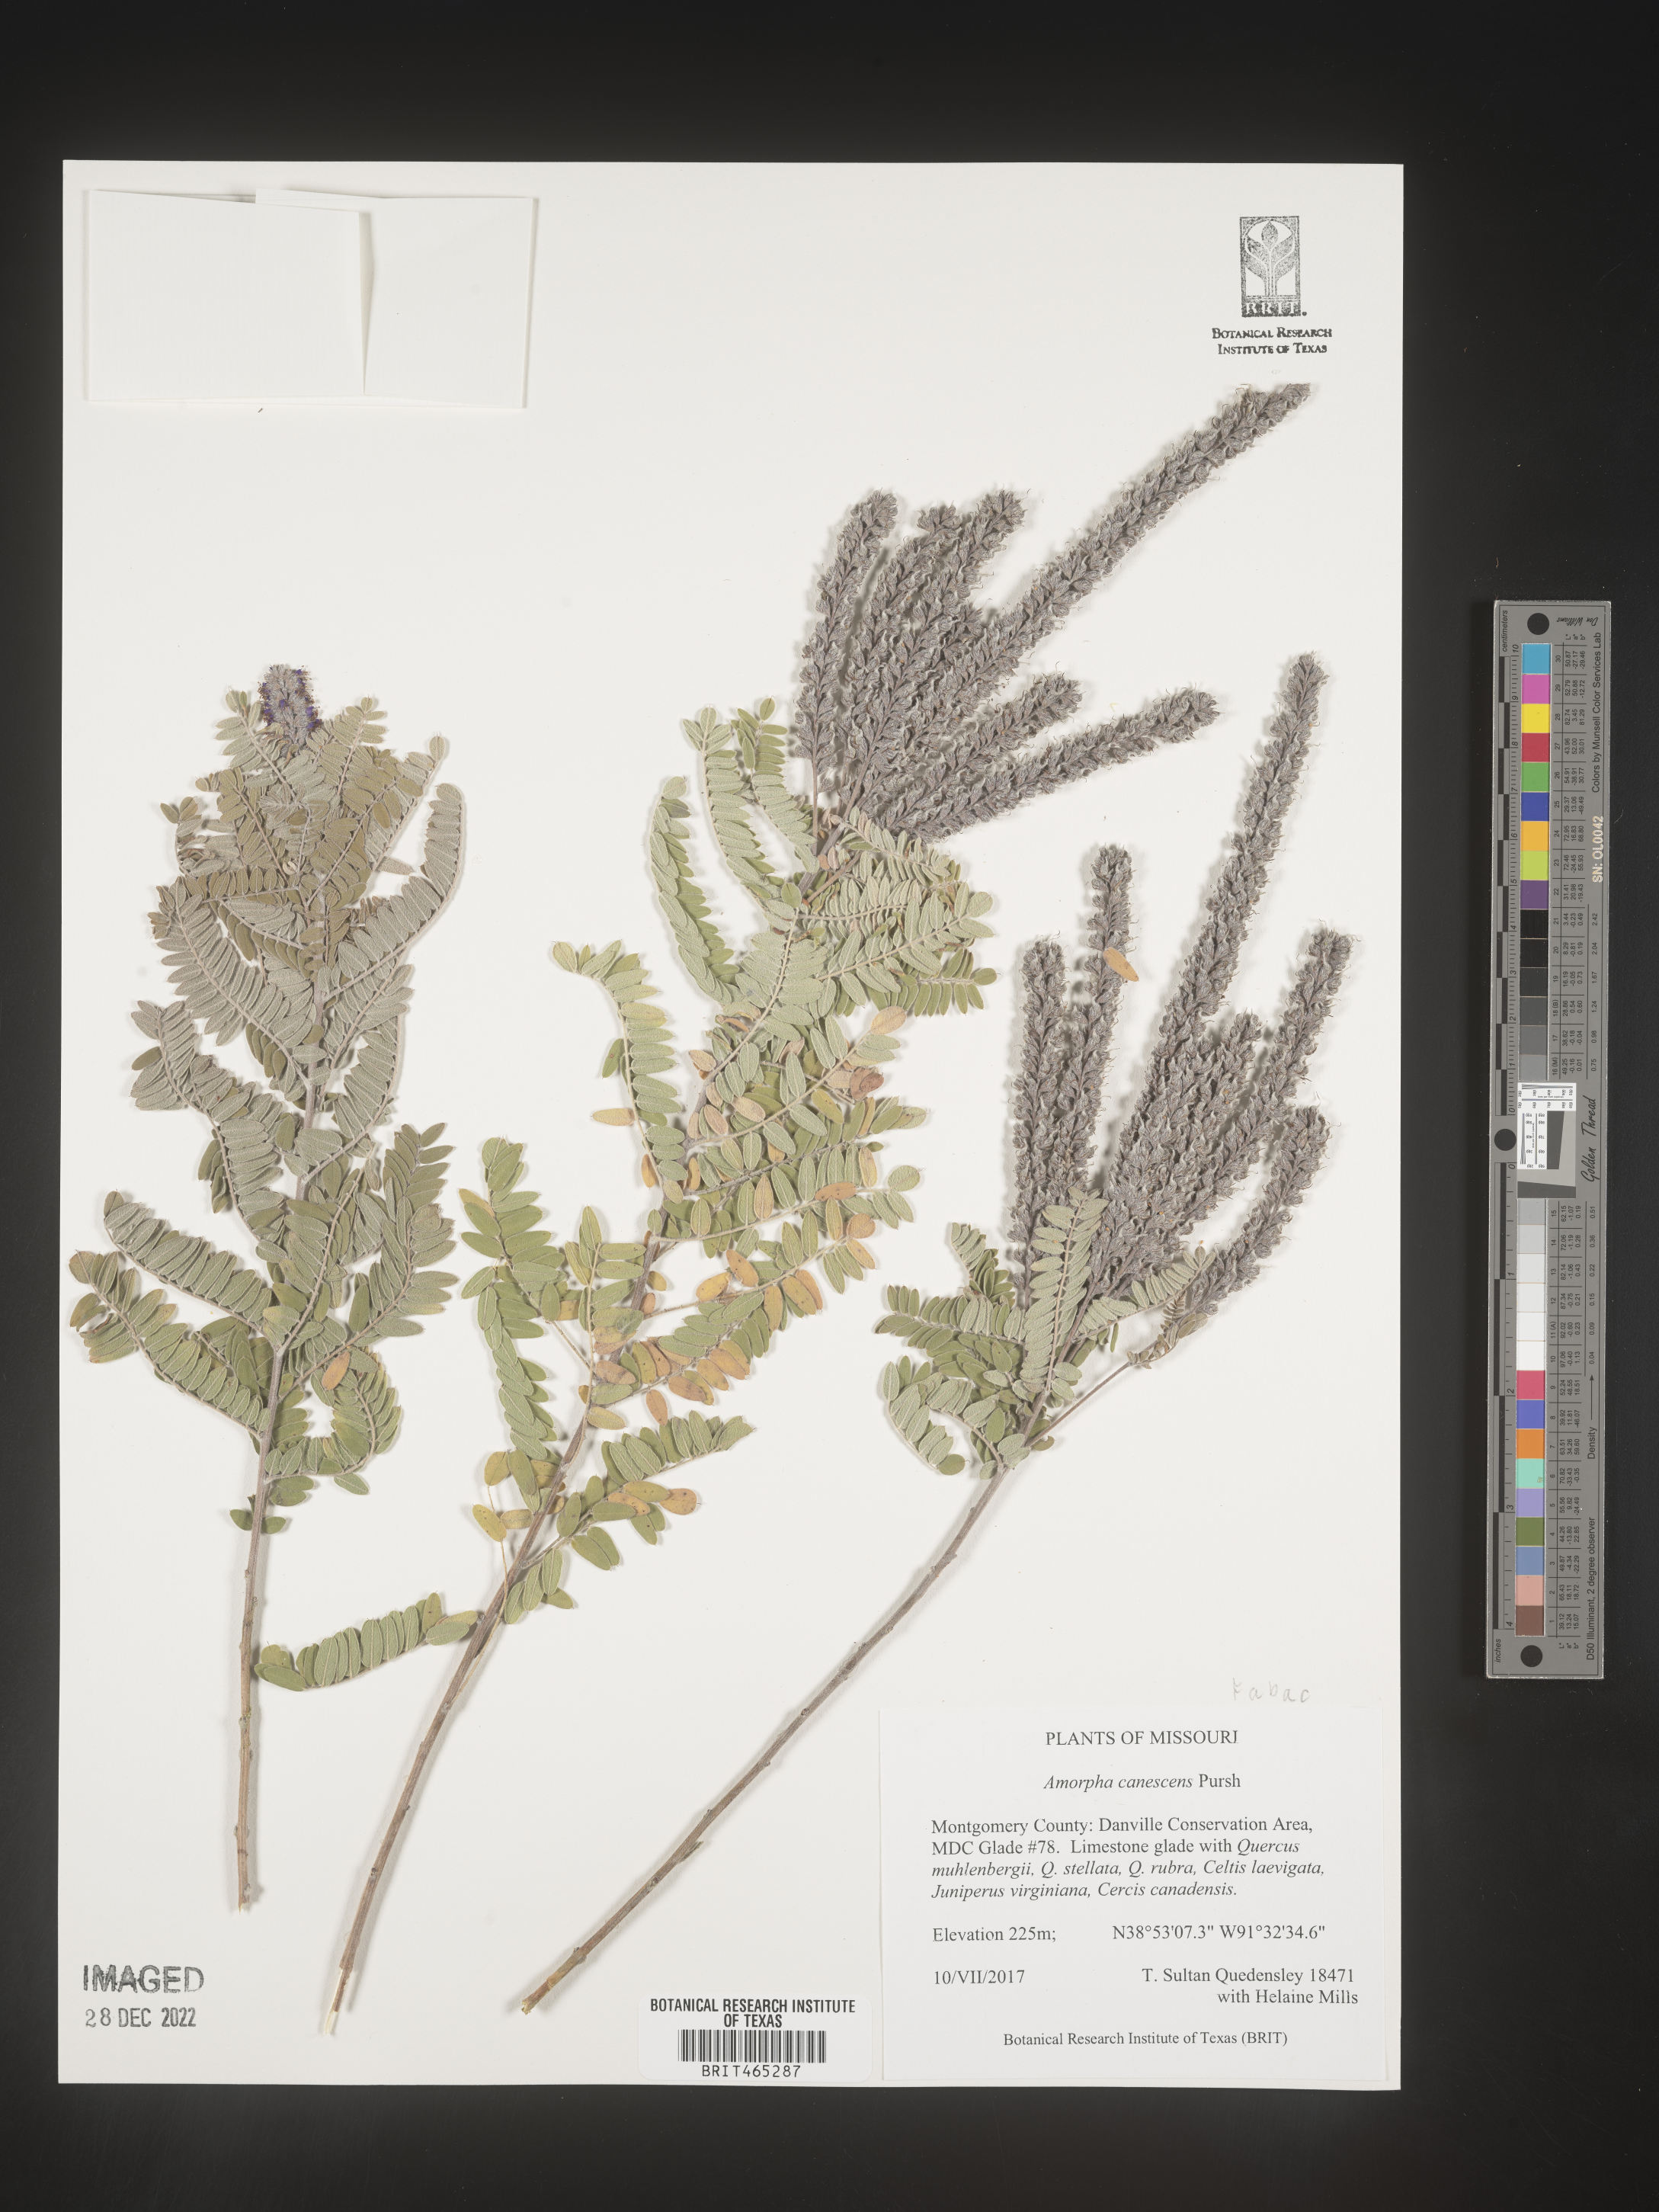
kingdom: Plantae
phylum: Tracheophyta
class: Magnoliopsida
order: Fabales
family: Fabaceae
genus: Amorpha
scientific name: Amorpha canescens
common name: Leadplant
